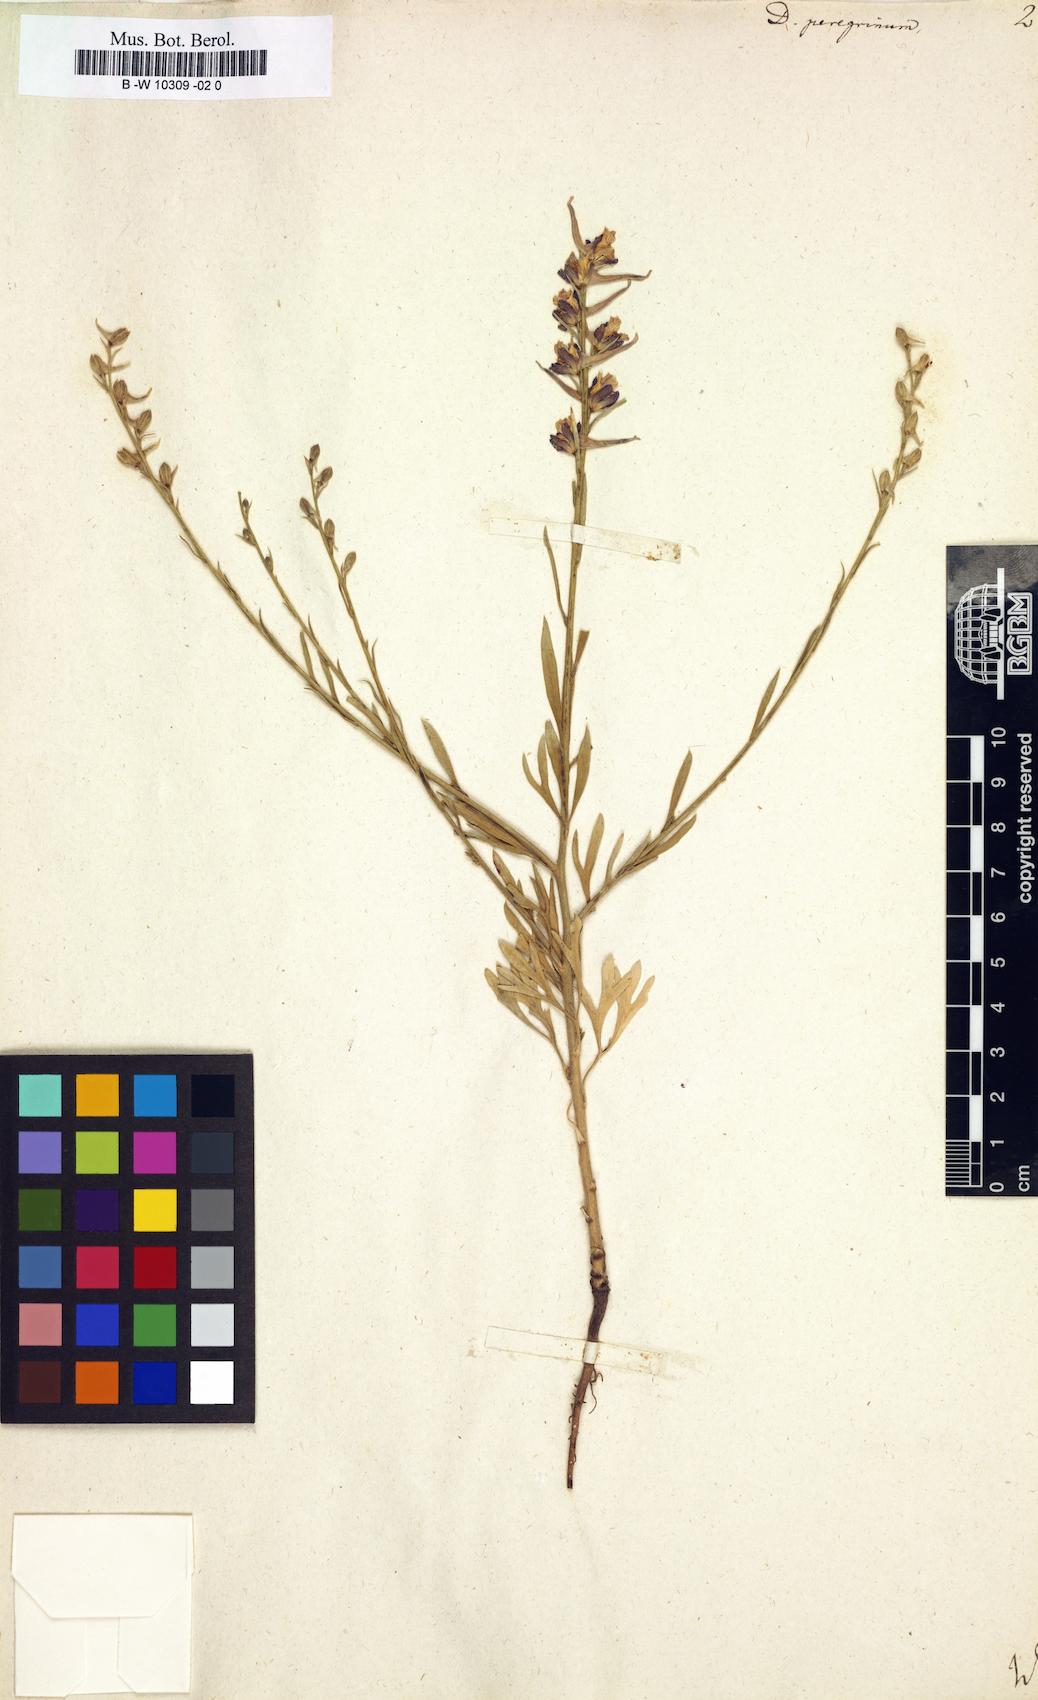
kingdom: Plantae
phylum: Tracheophyta
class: Magnoliopsida
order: Ranunculales
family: Ranunculaceae
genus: Delphinium
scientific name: Delphinium peregrinum
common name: Violet larkspur
